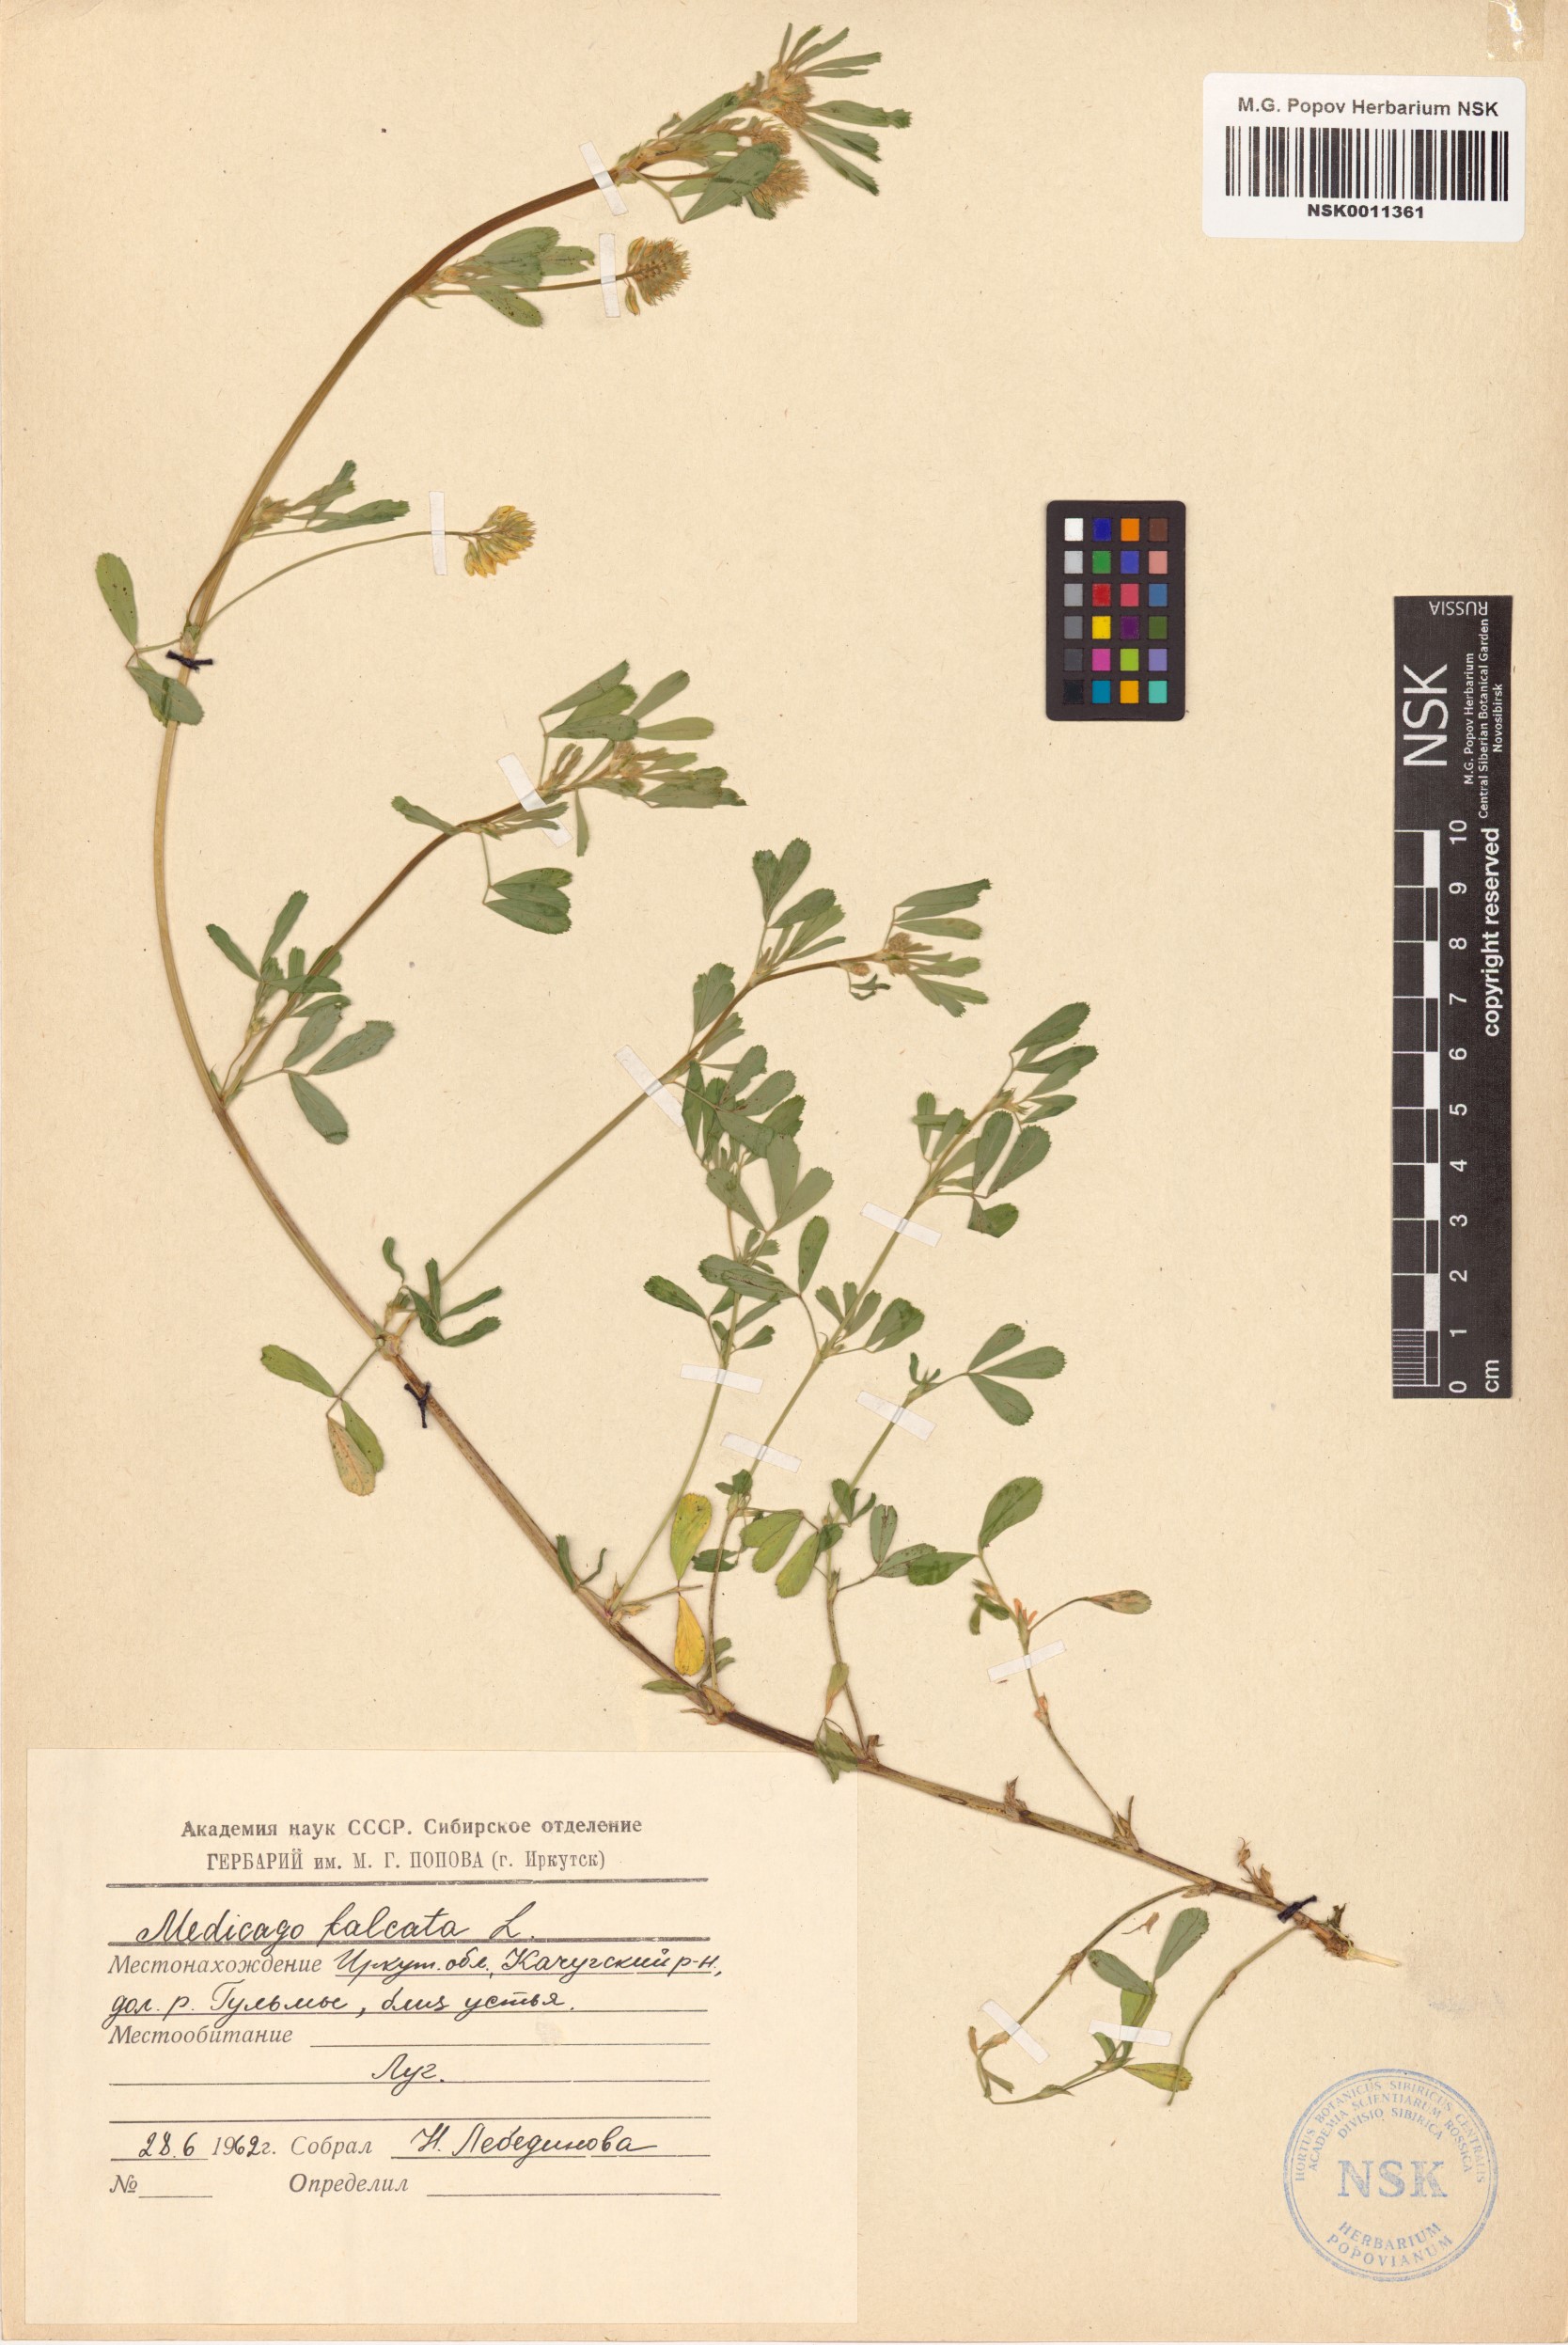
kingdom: Plantae
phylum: Tracheophyta
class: Magnoliopsida
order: Fabales
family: Fabaceae
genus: Medicago
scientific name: Medicago falcata
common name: Sickle medick
